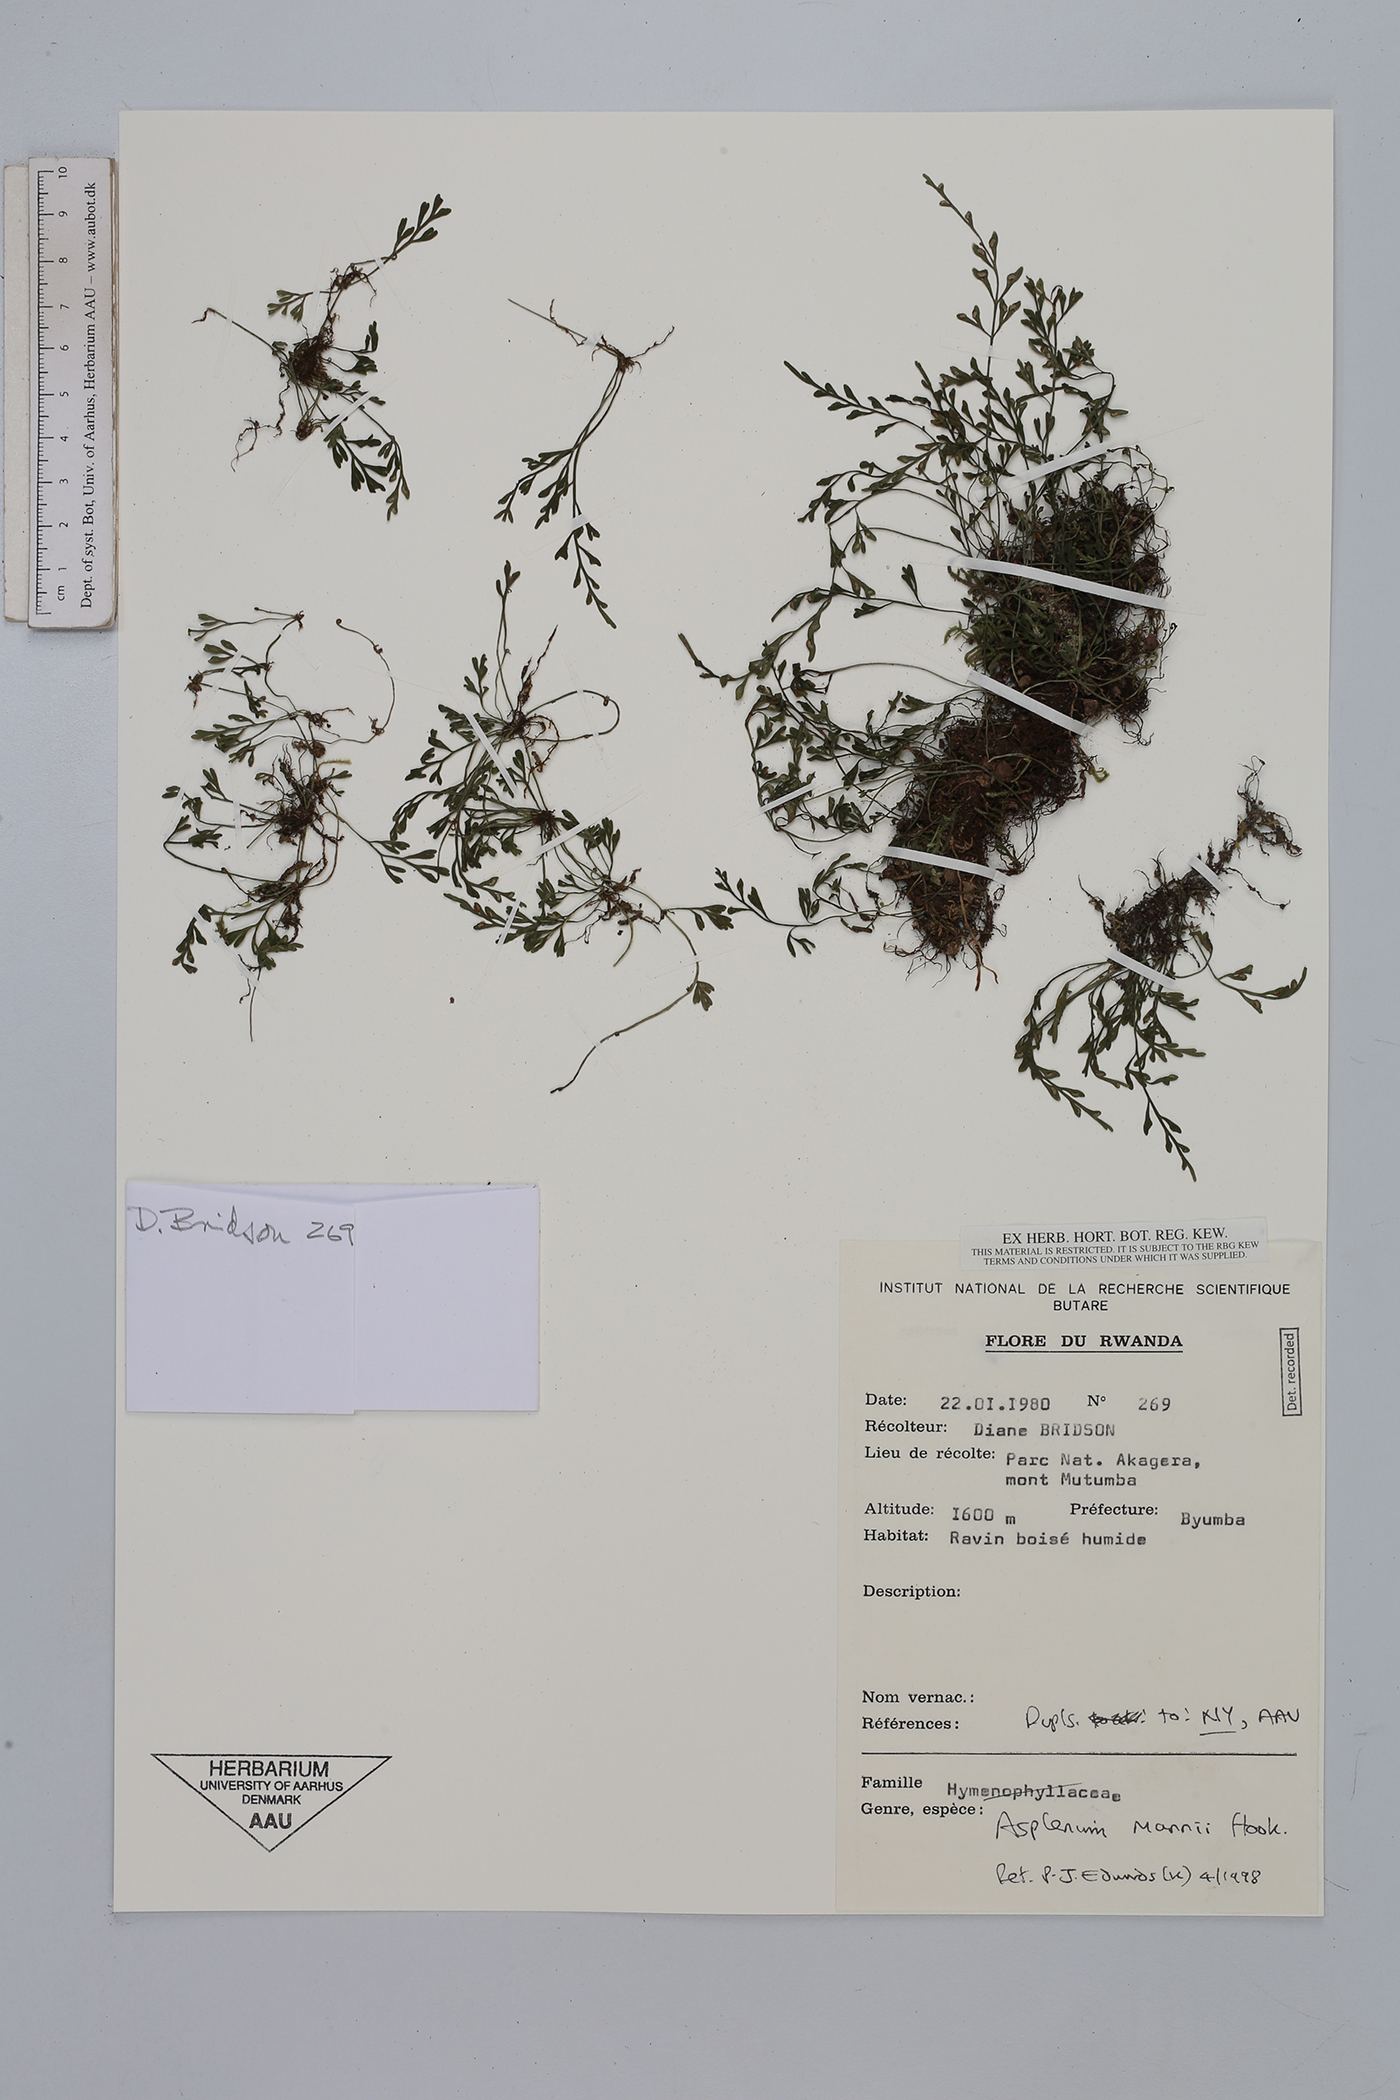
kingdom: Plantae
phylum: Tracheophyta
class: Polypodiopsida
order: Polypodiales
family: Aspleniaceae
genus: Asplenium
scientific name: Asplenium mannii
